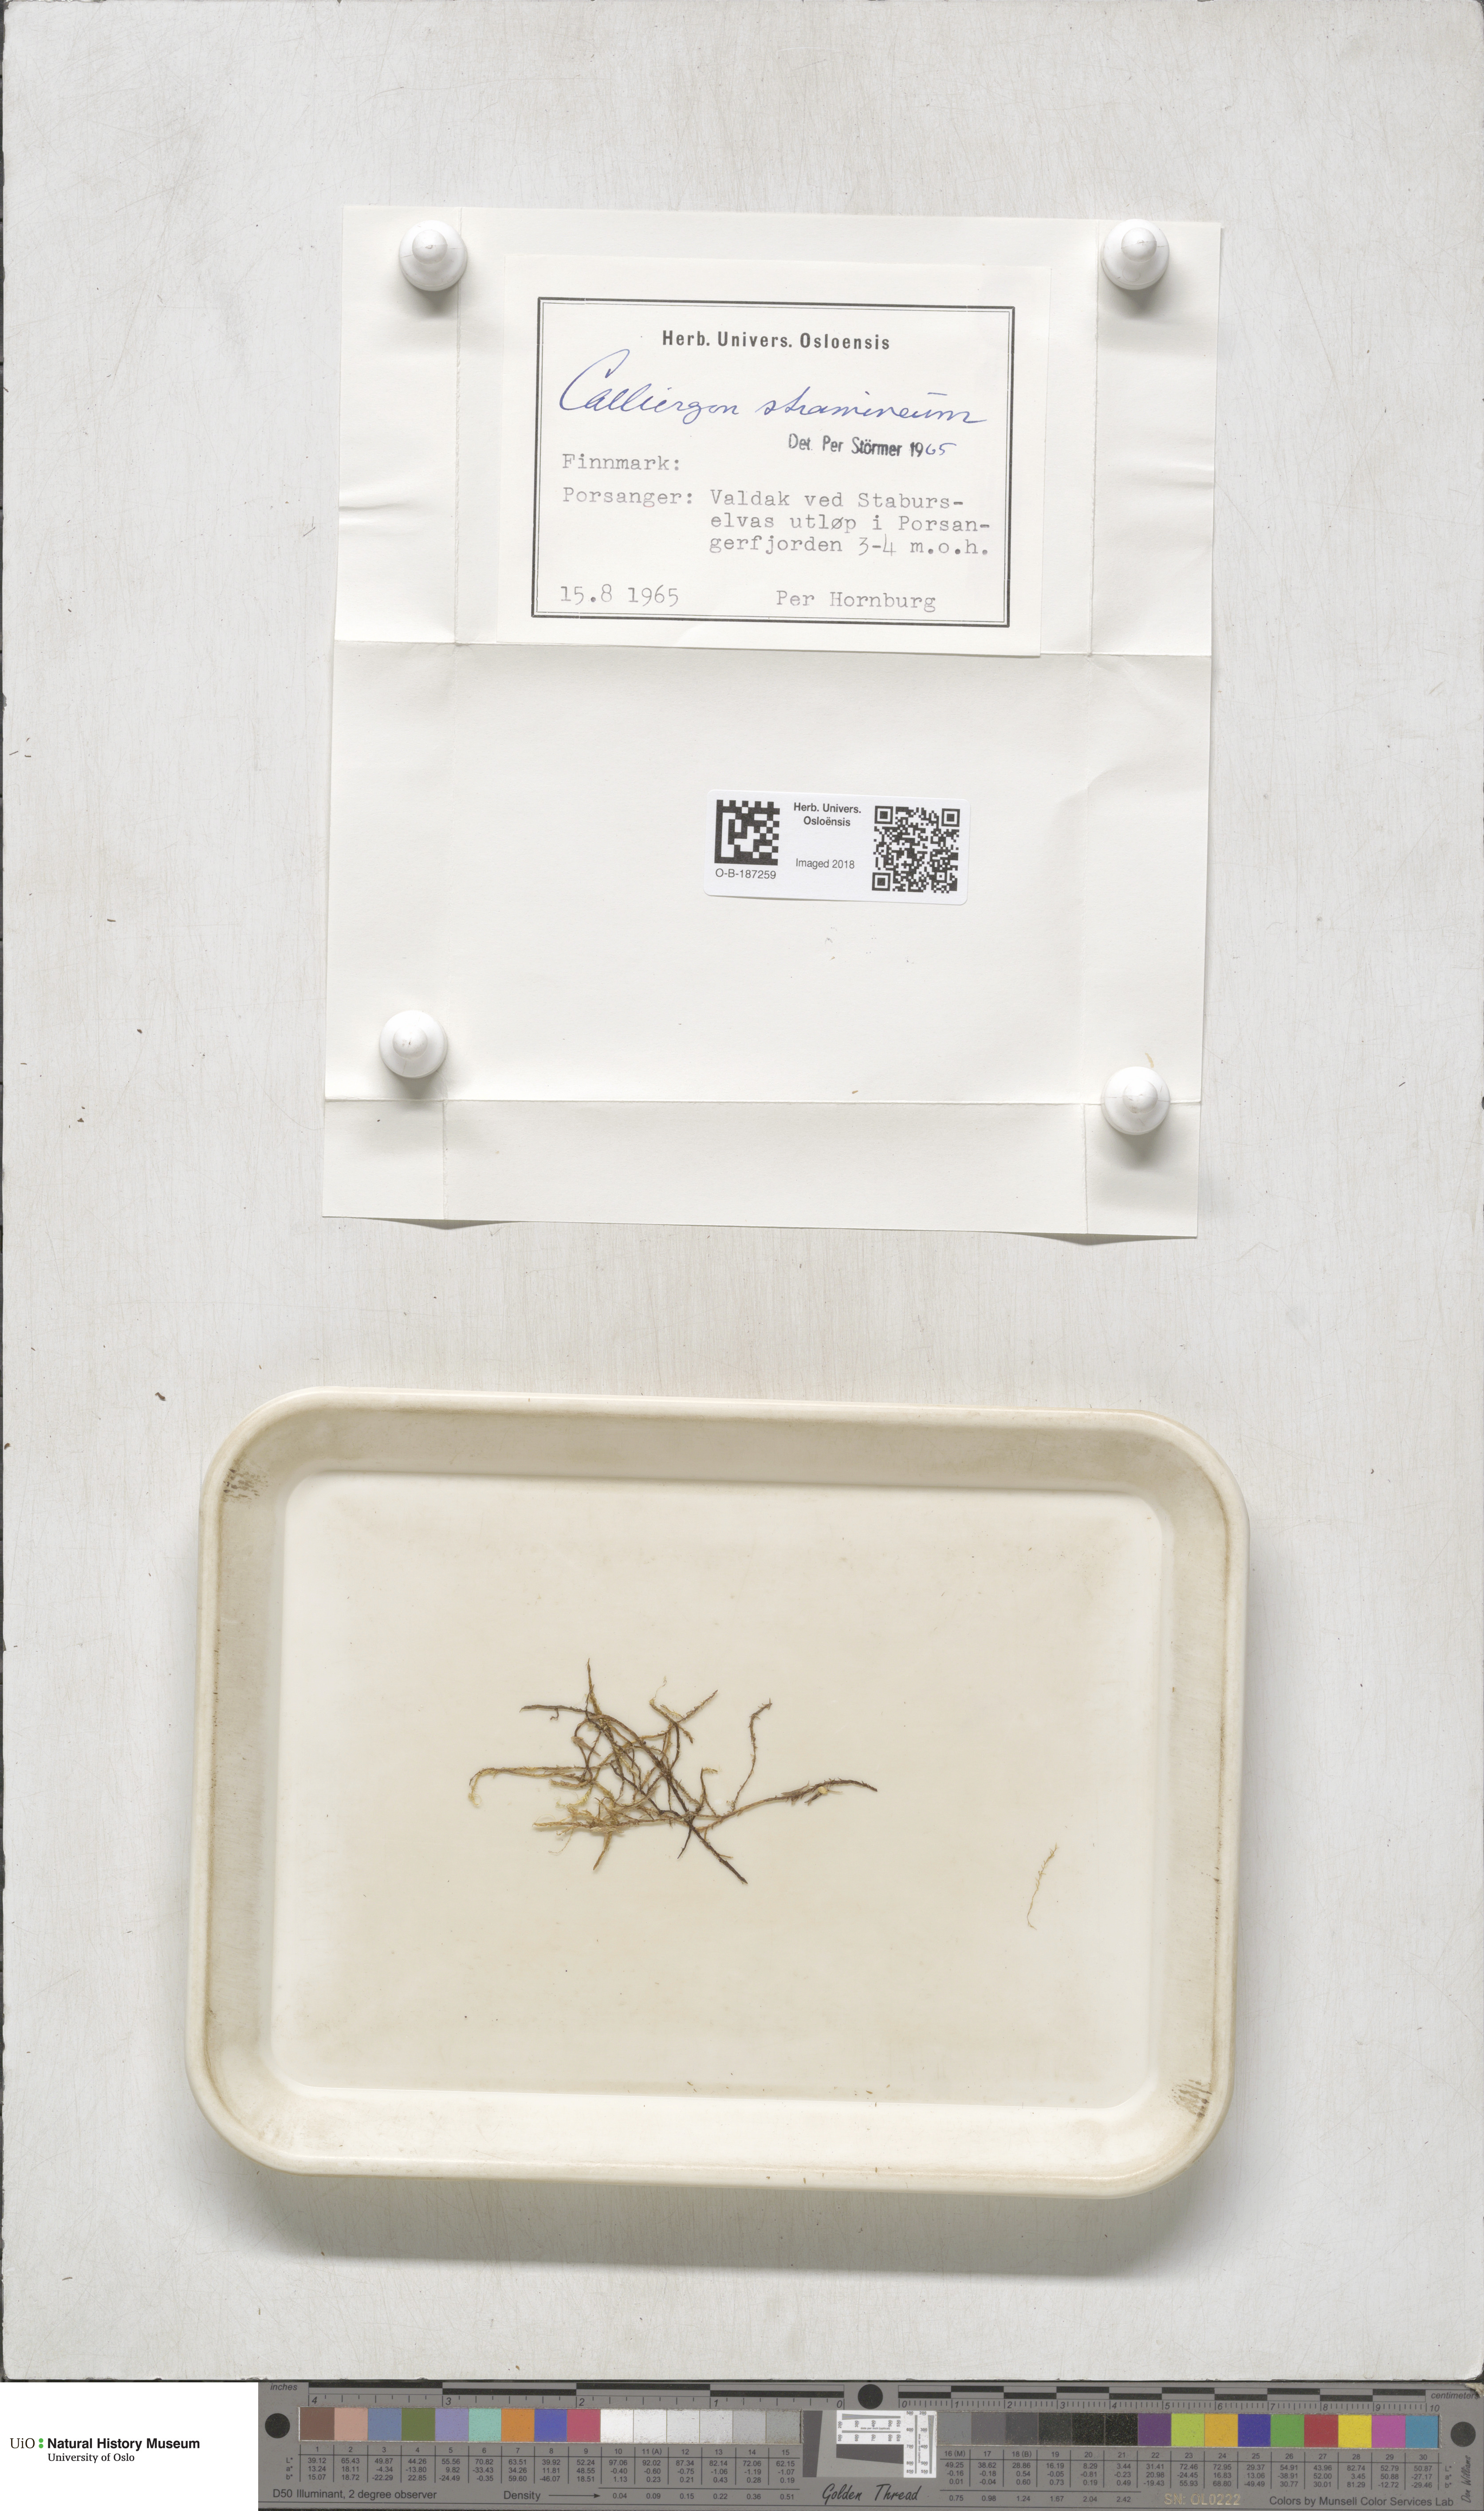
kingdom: Plantae
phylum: Bryophyta
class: Bryopsida
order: Hypnales
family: Calliergonaceae
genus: Straminergon
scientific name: Straminergon stramineum
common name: Straw moss
